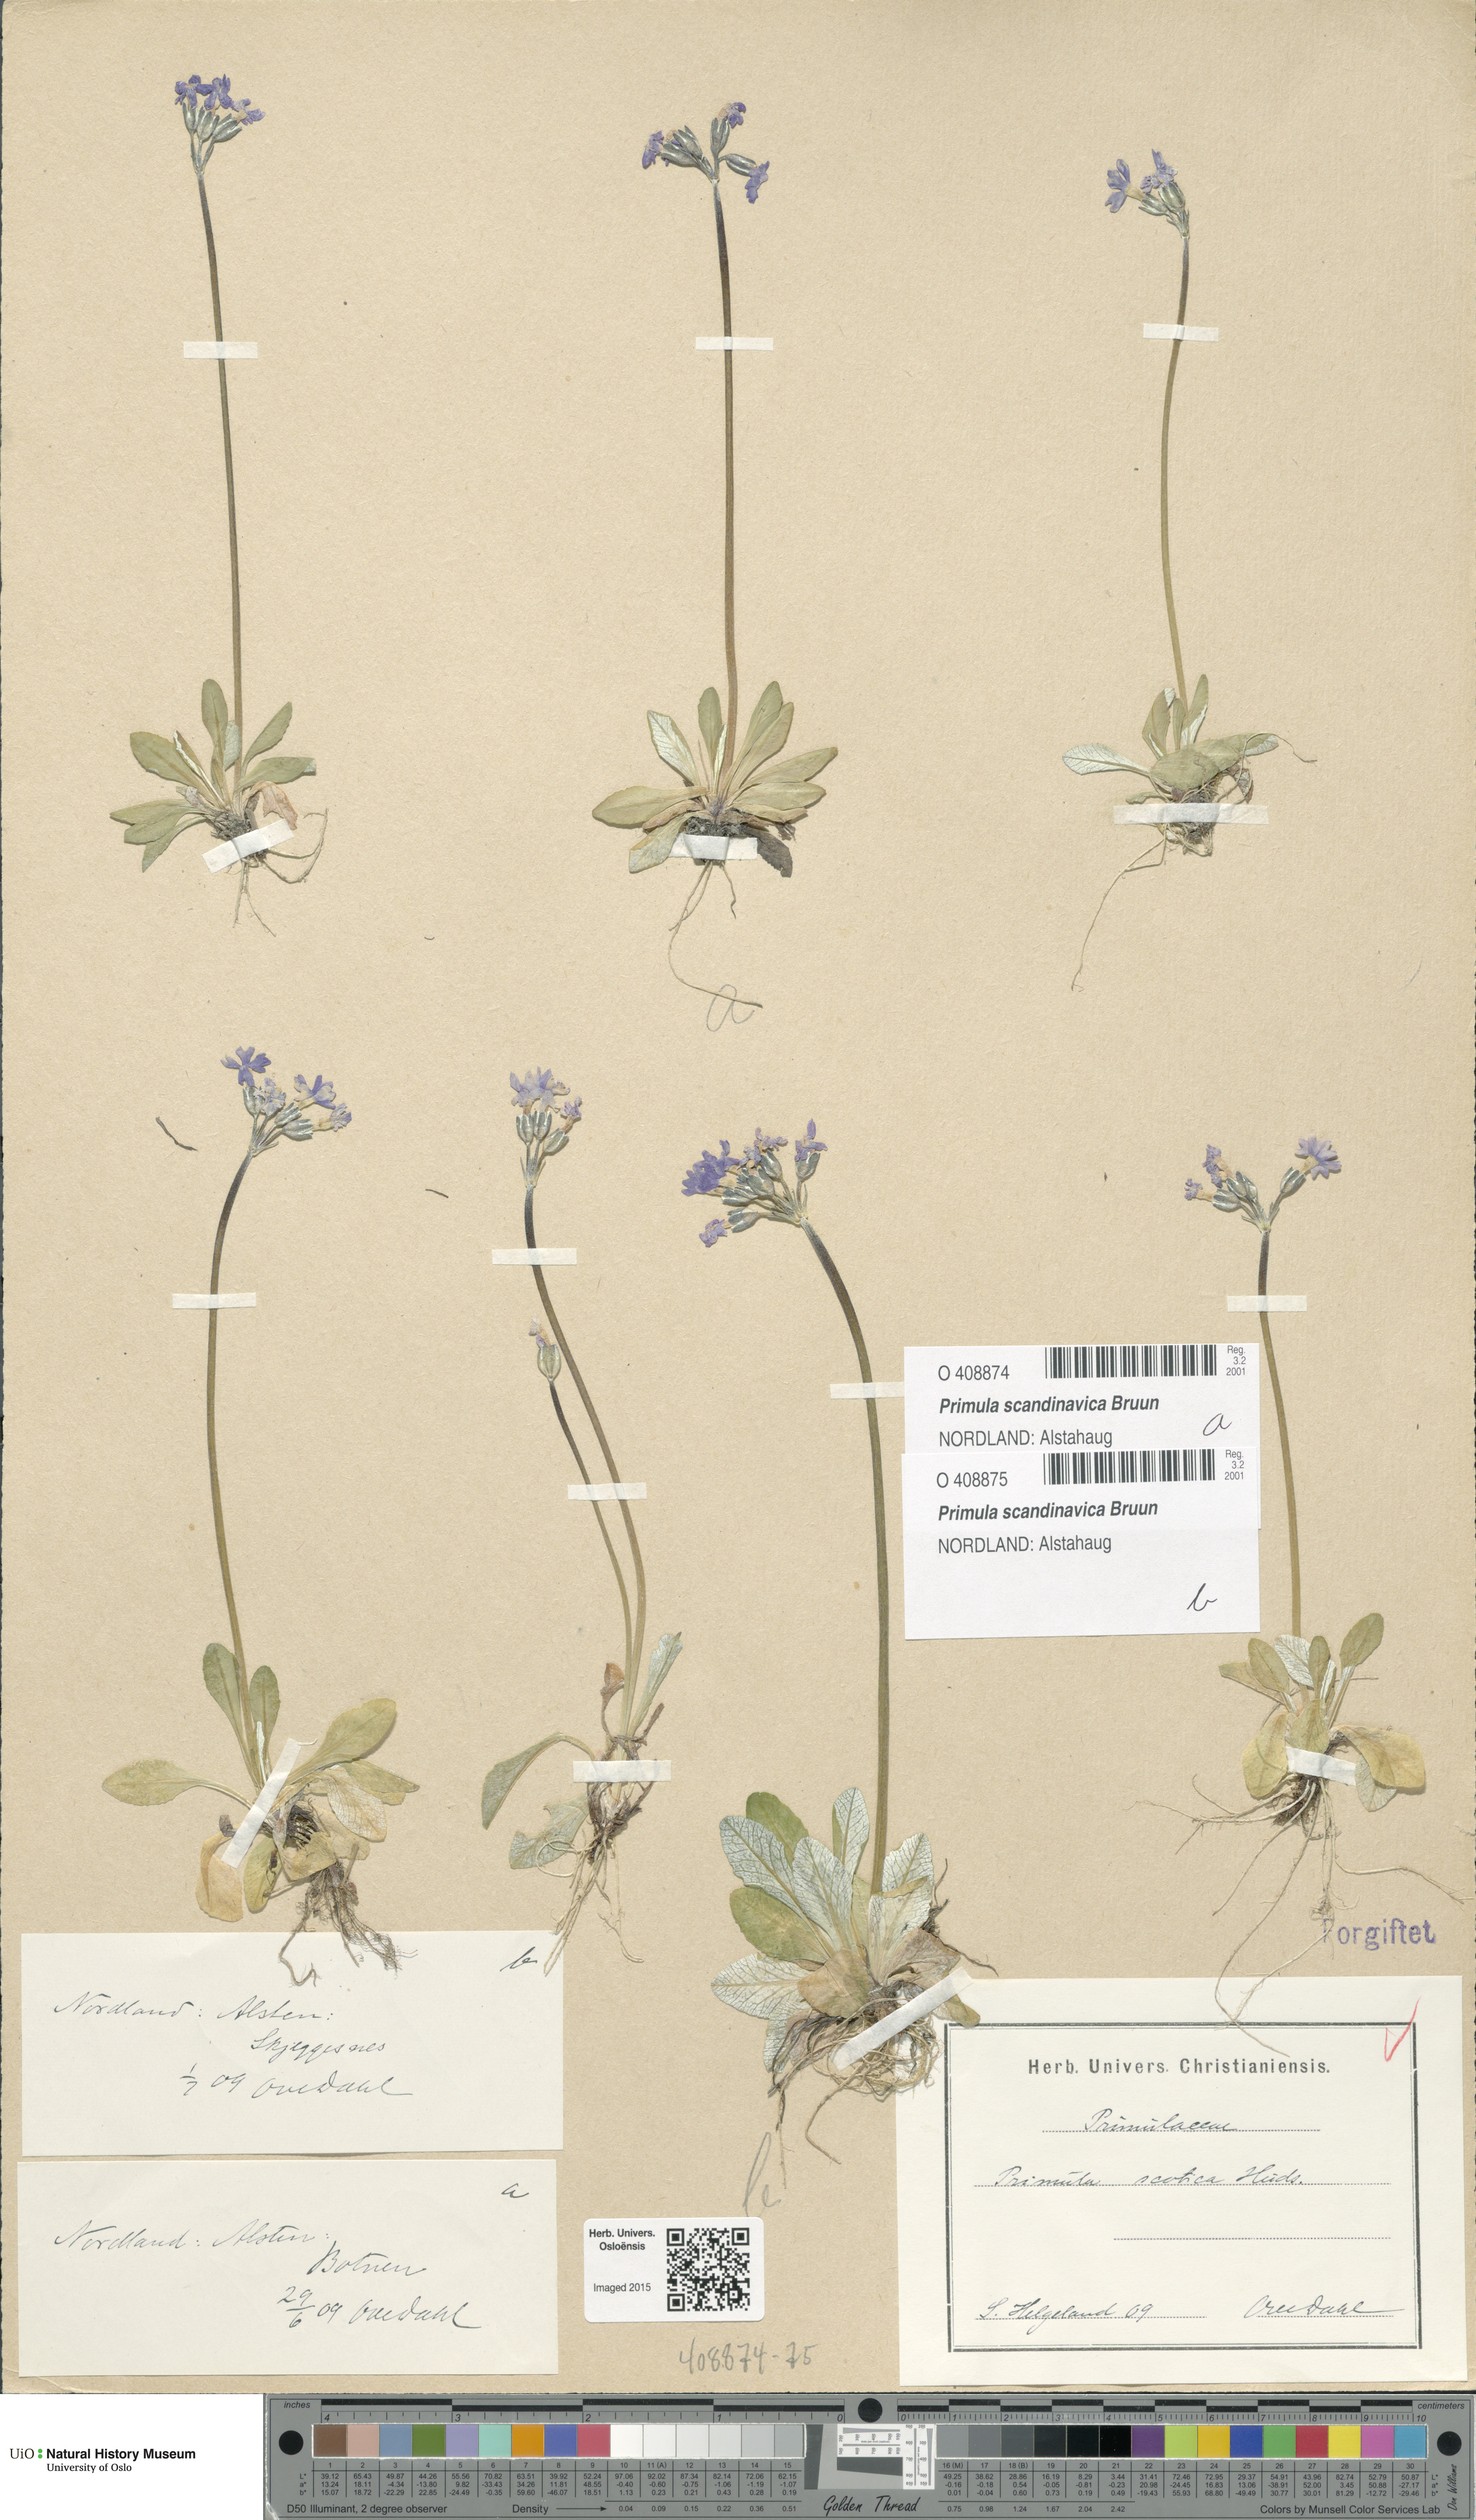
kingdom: Plantae
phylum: Tracheophyta
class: Magnoliopsida
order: Ericales
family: Primulaceae
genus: Primula
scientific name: Primula scandinavica
